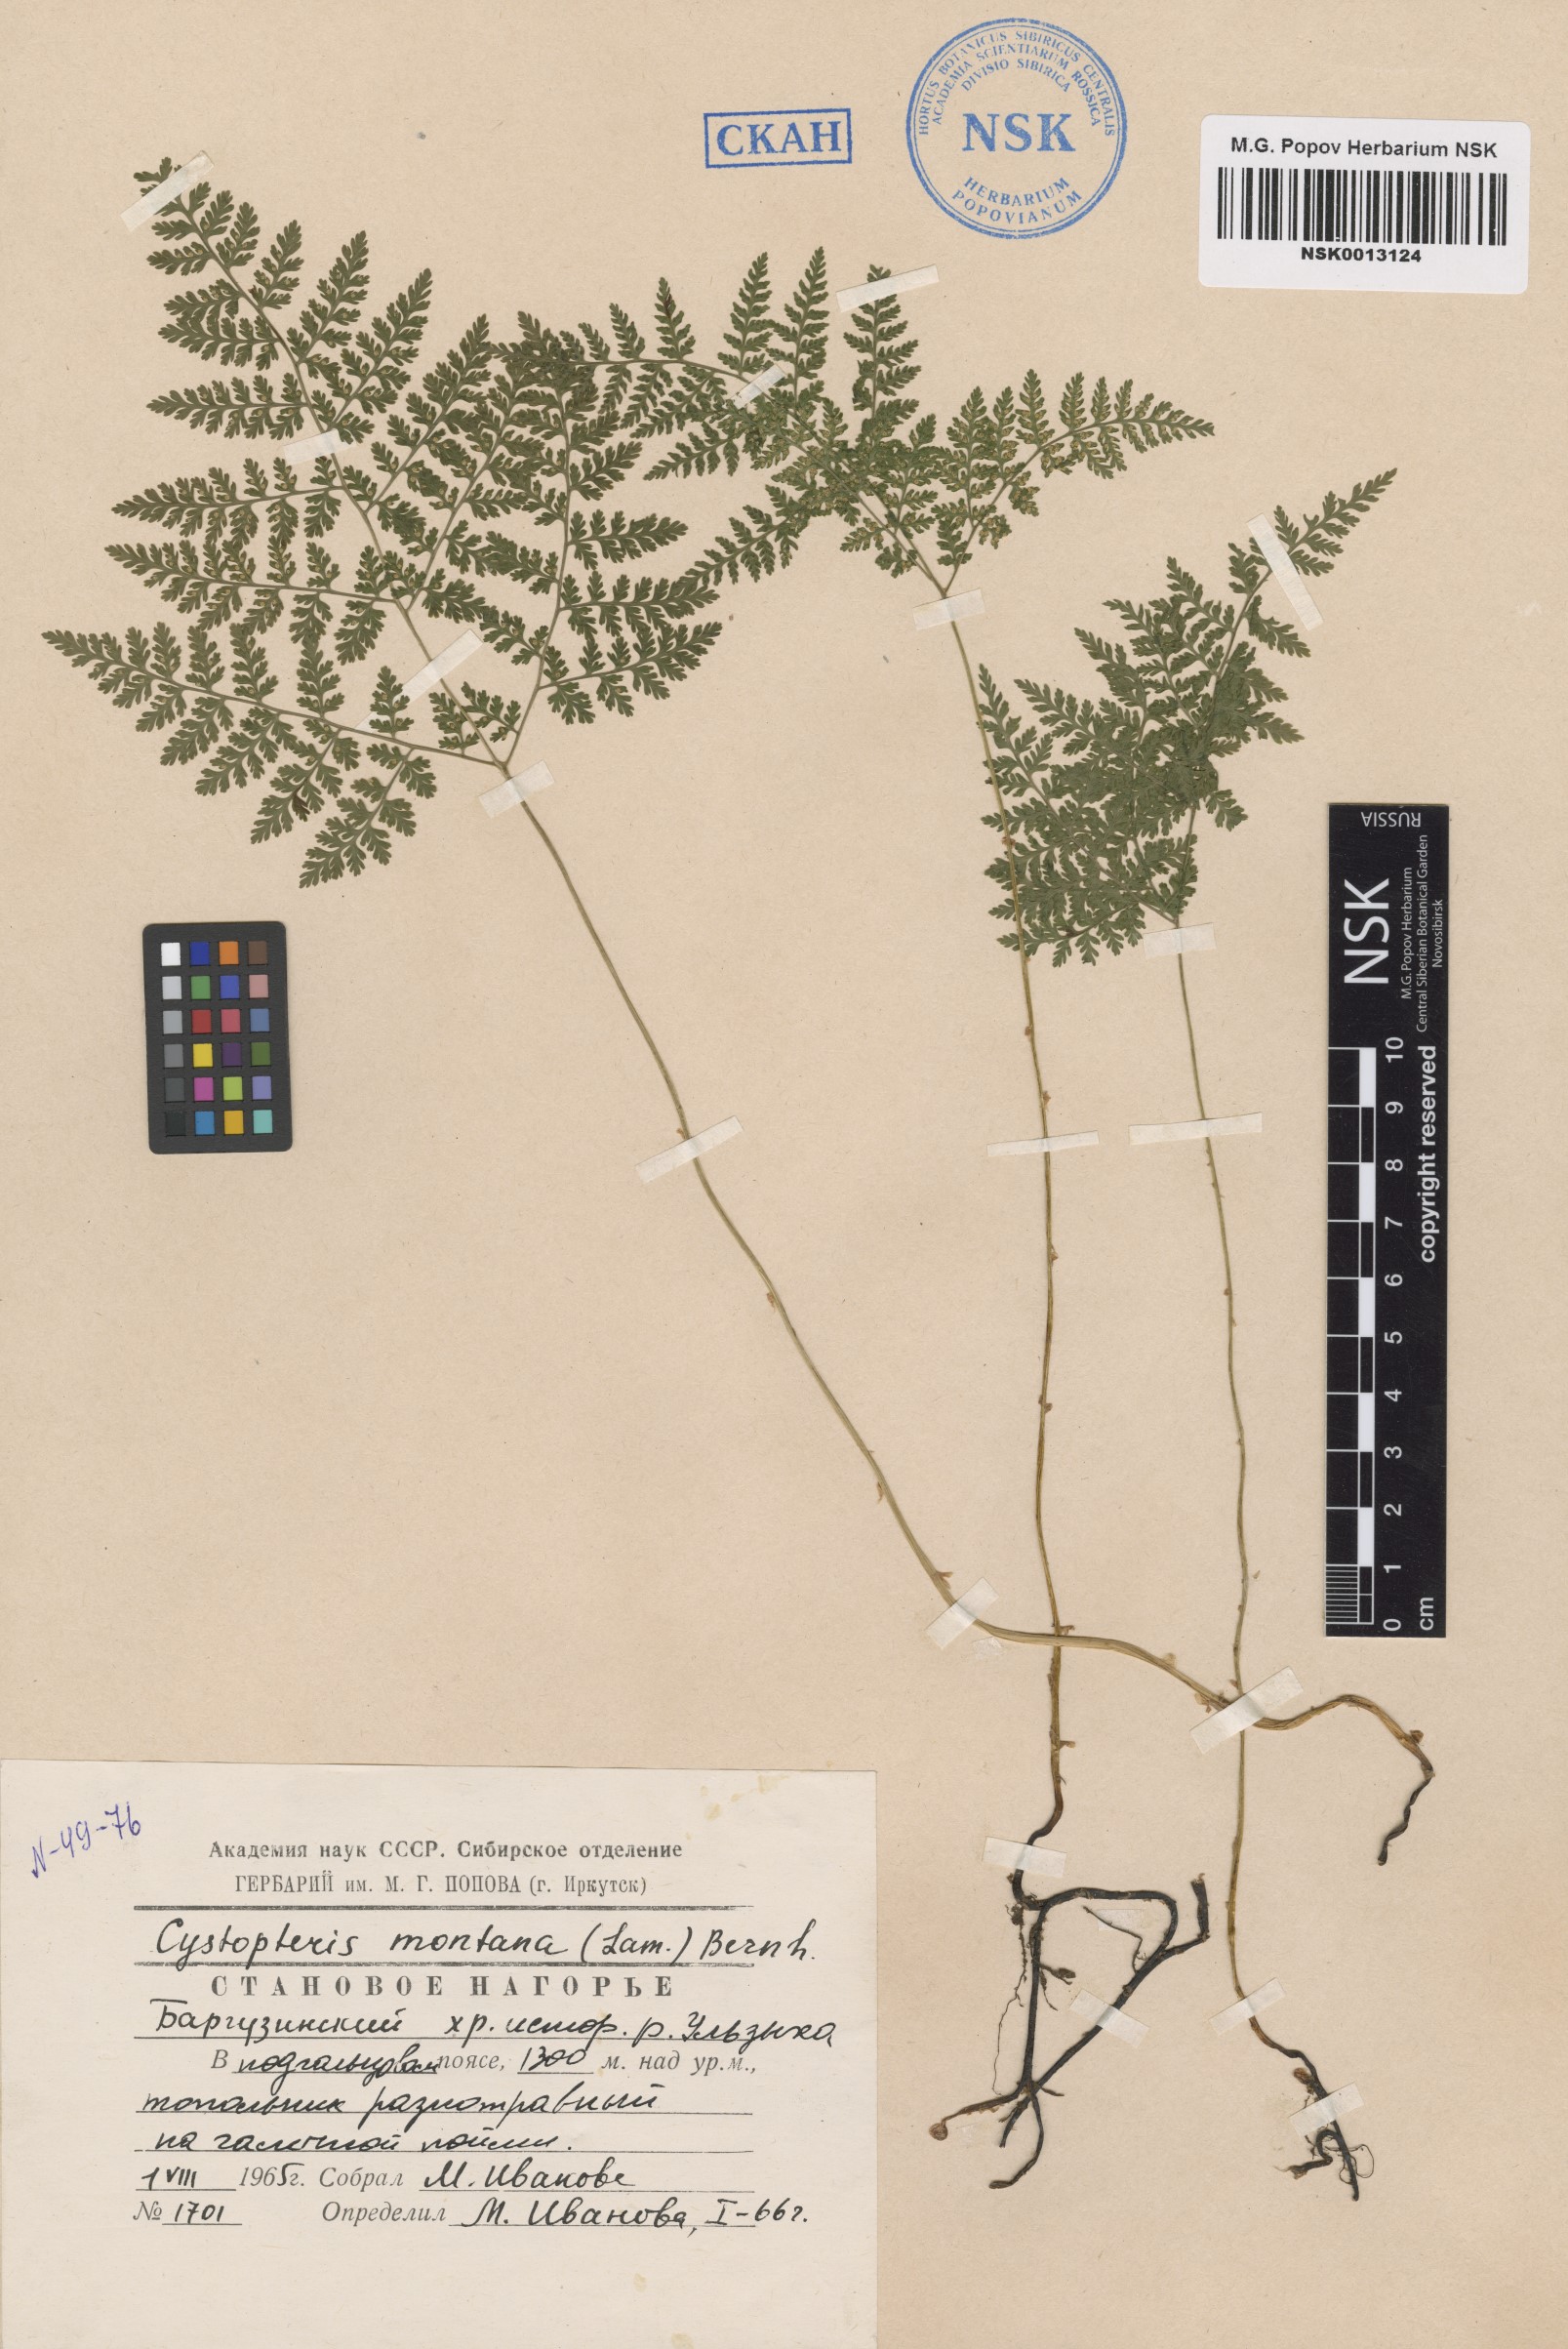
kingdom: Plantae
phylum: Tracheophyta
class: Polypodiopsida
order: Polypodiales
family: Cystopteridaceae
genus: Cystopteris
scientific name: Cystopteris montana
